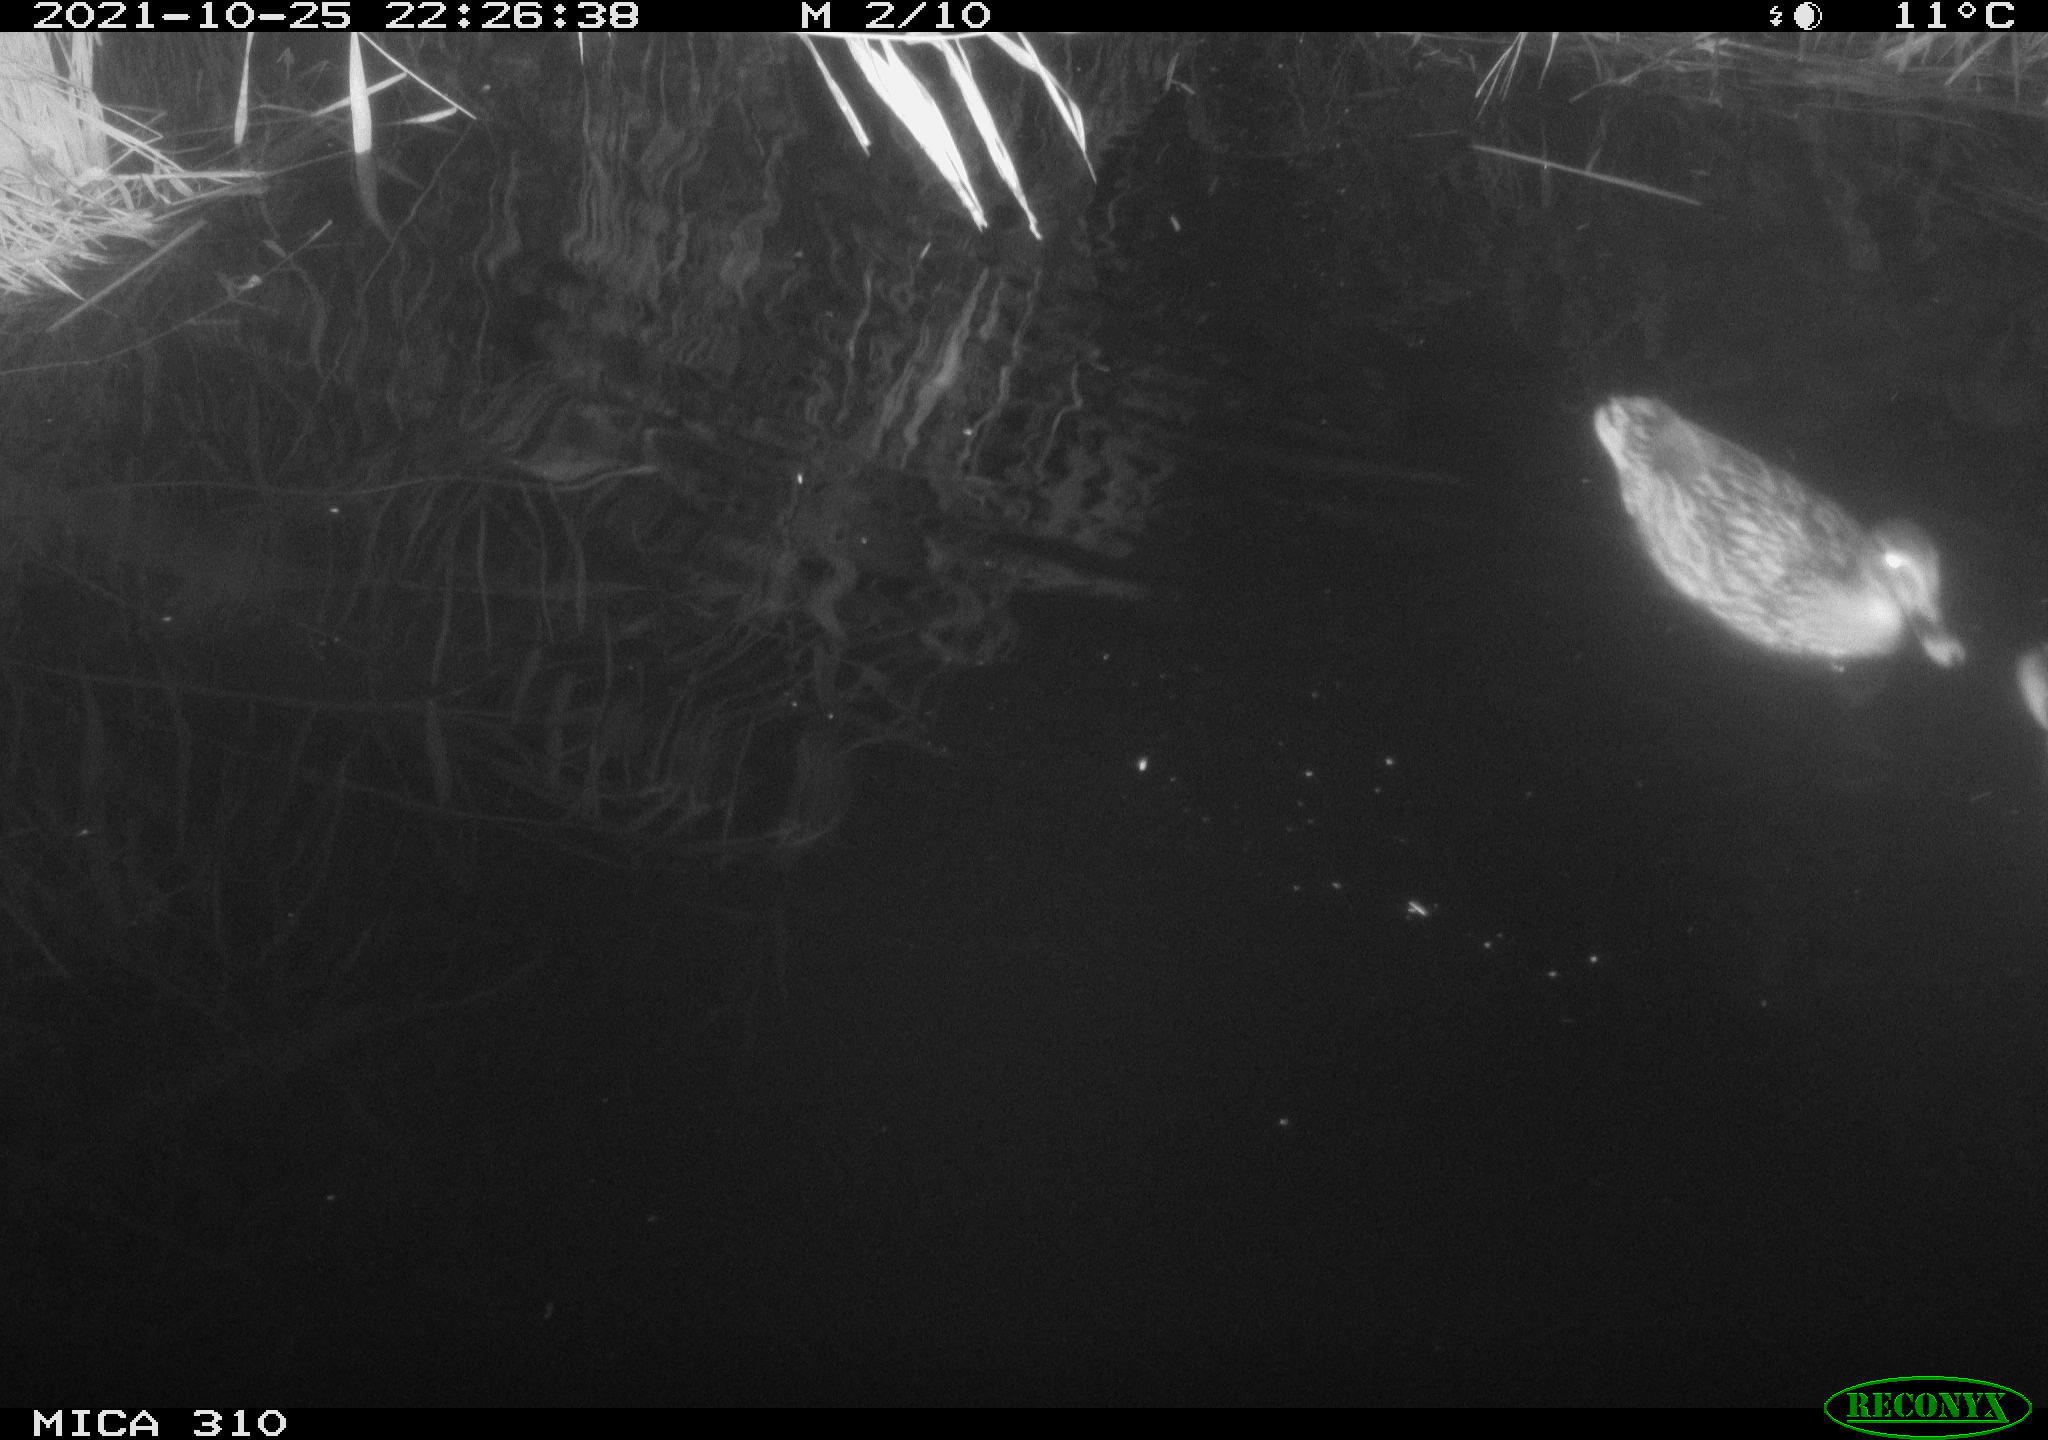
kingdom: Animalia
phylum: Chordata
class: Aves
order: Anseriformes
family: Anatidae
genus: Anas
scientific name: Anas platyrhynchos
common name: Mallard
